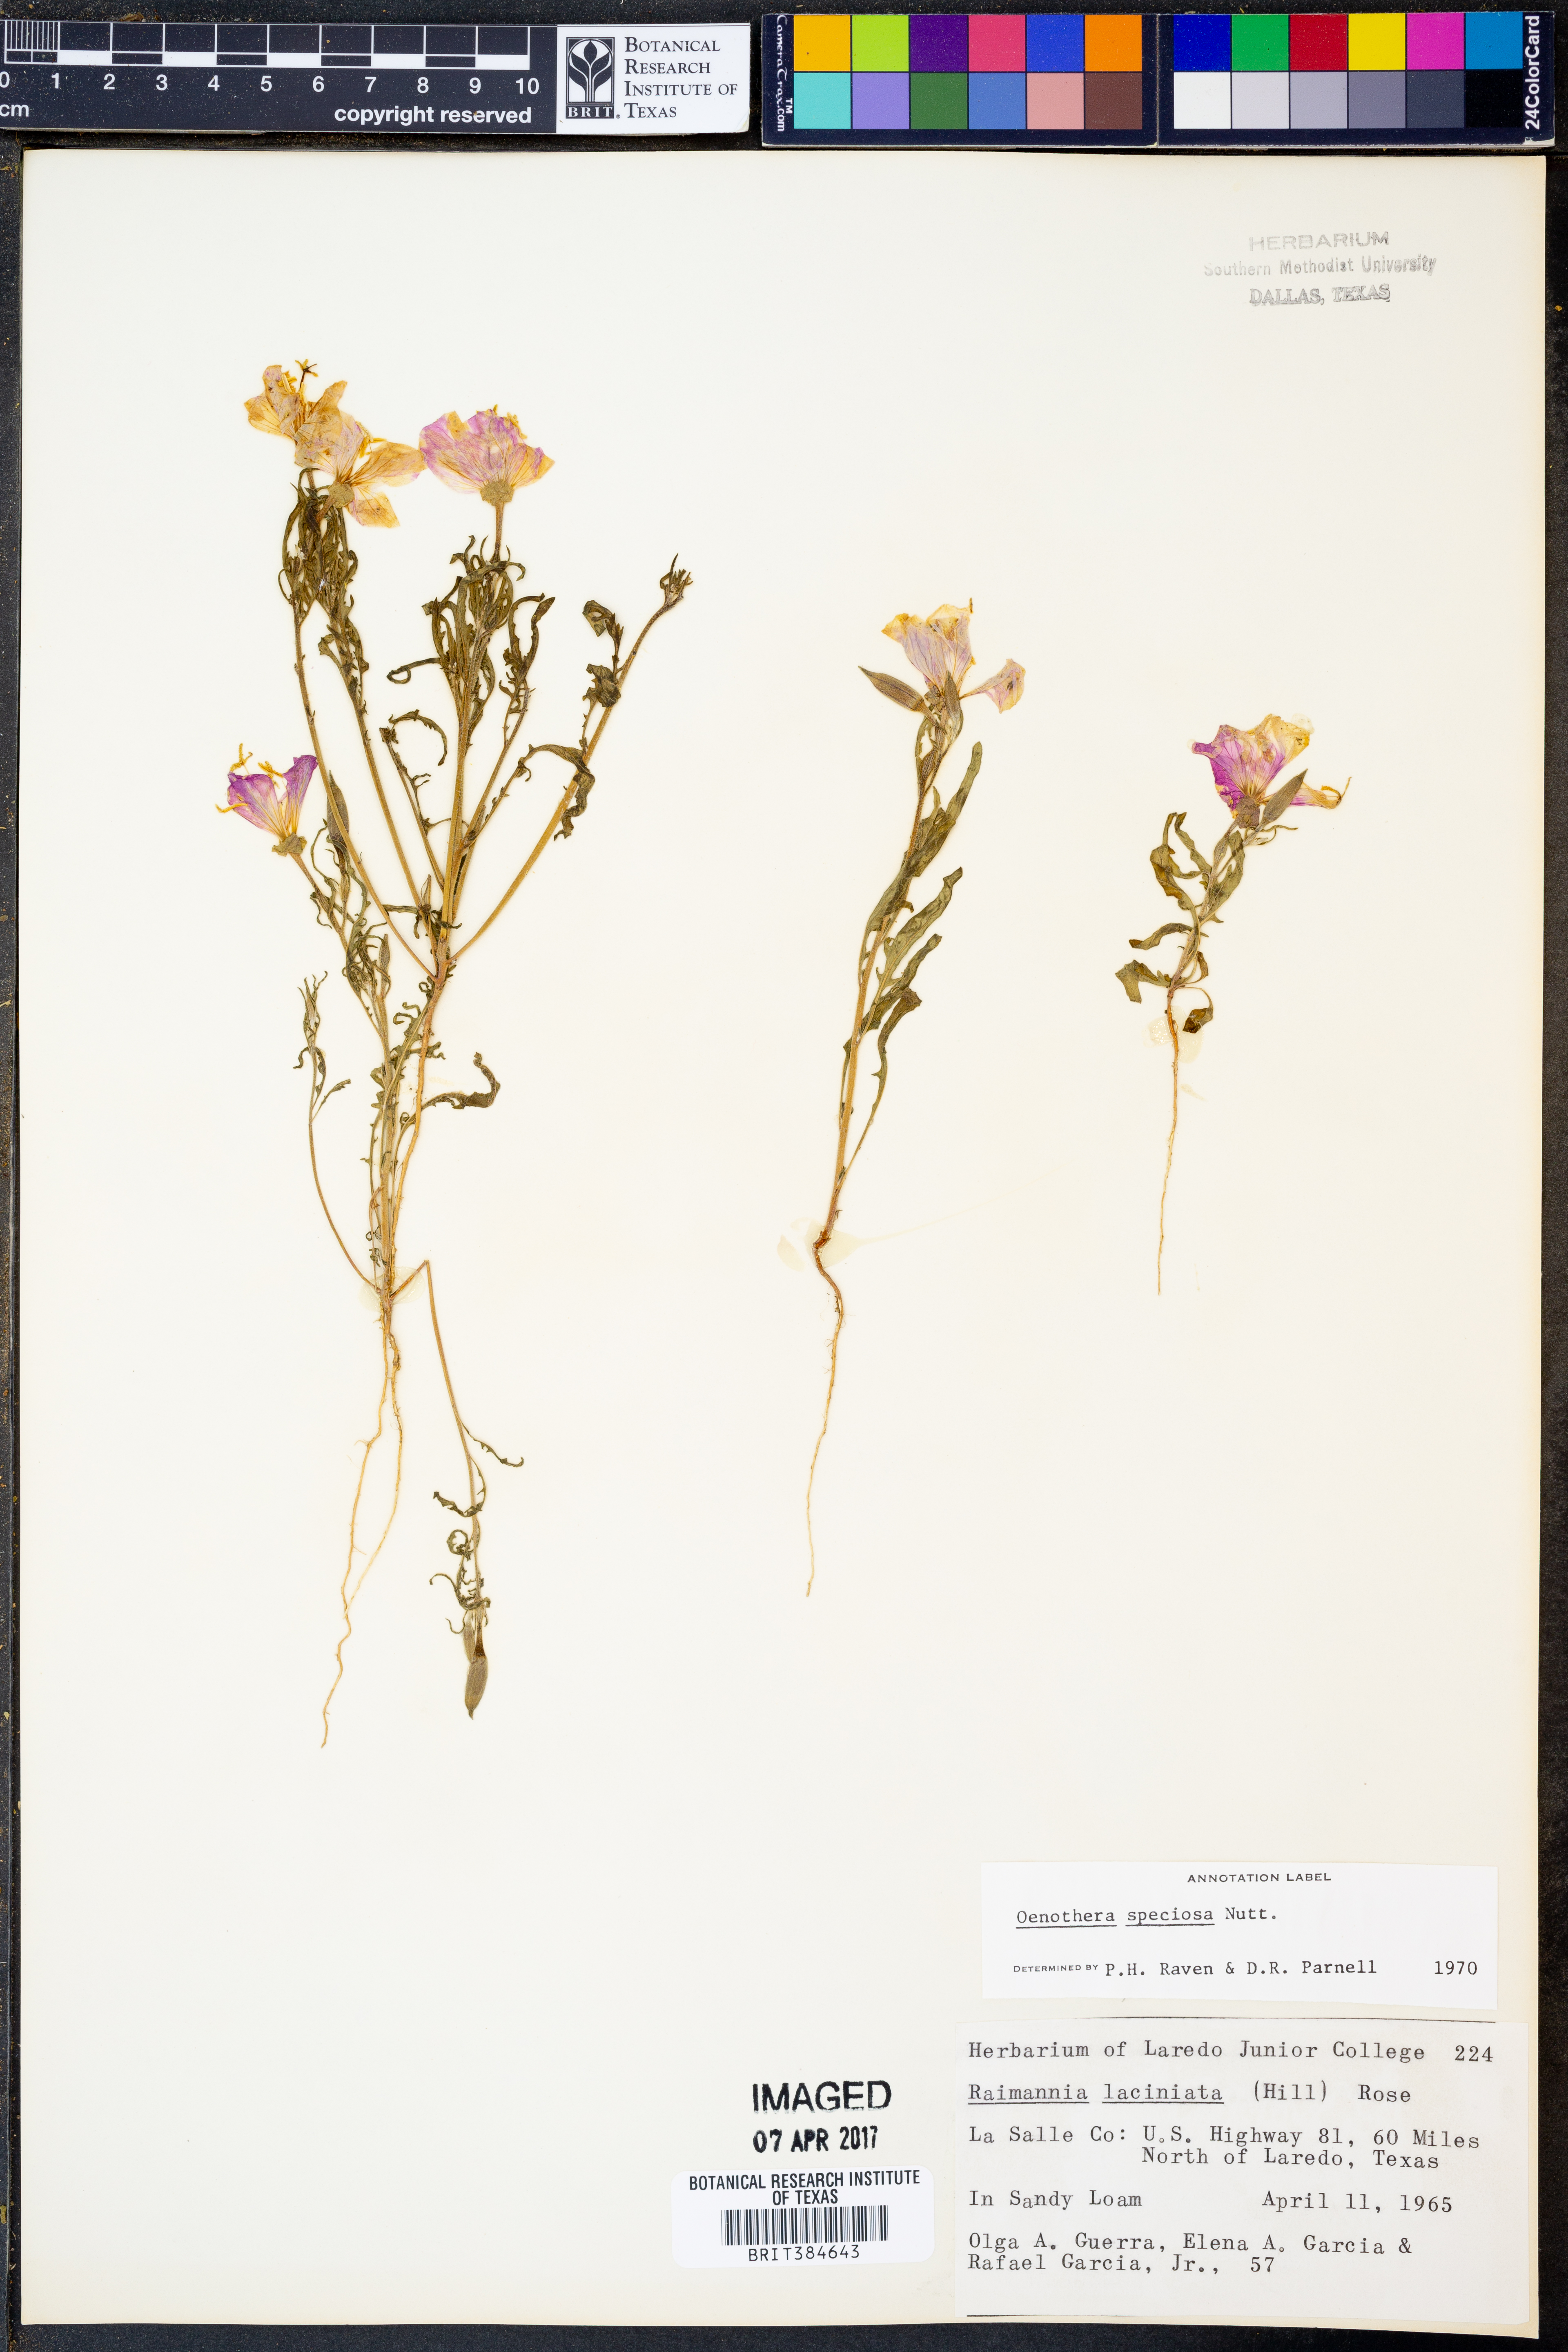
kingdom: Plantae
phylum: Tracheophyta
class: Magnoliopsida
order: Myrtales
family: Onagraceae
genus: Oenothera
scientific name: Oenothera speciosa
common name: White evening-primrose
